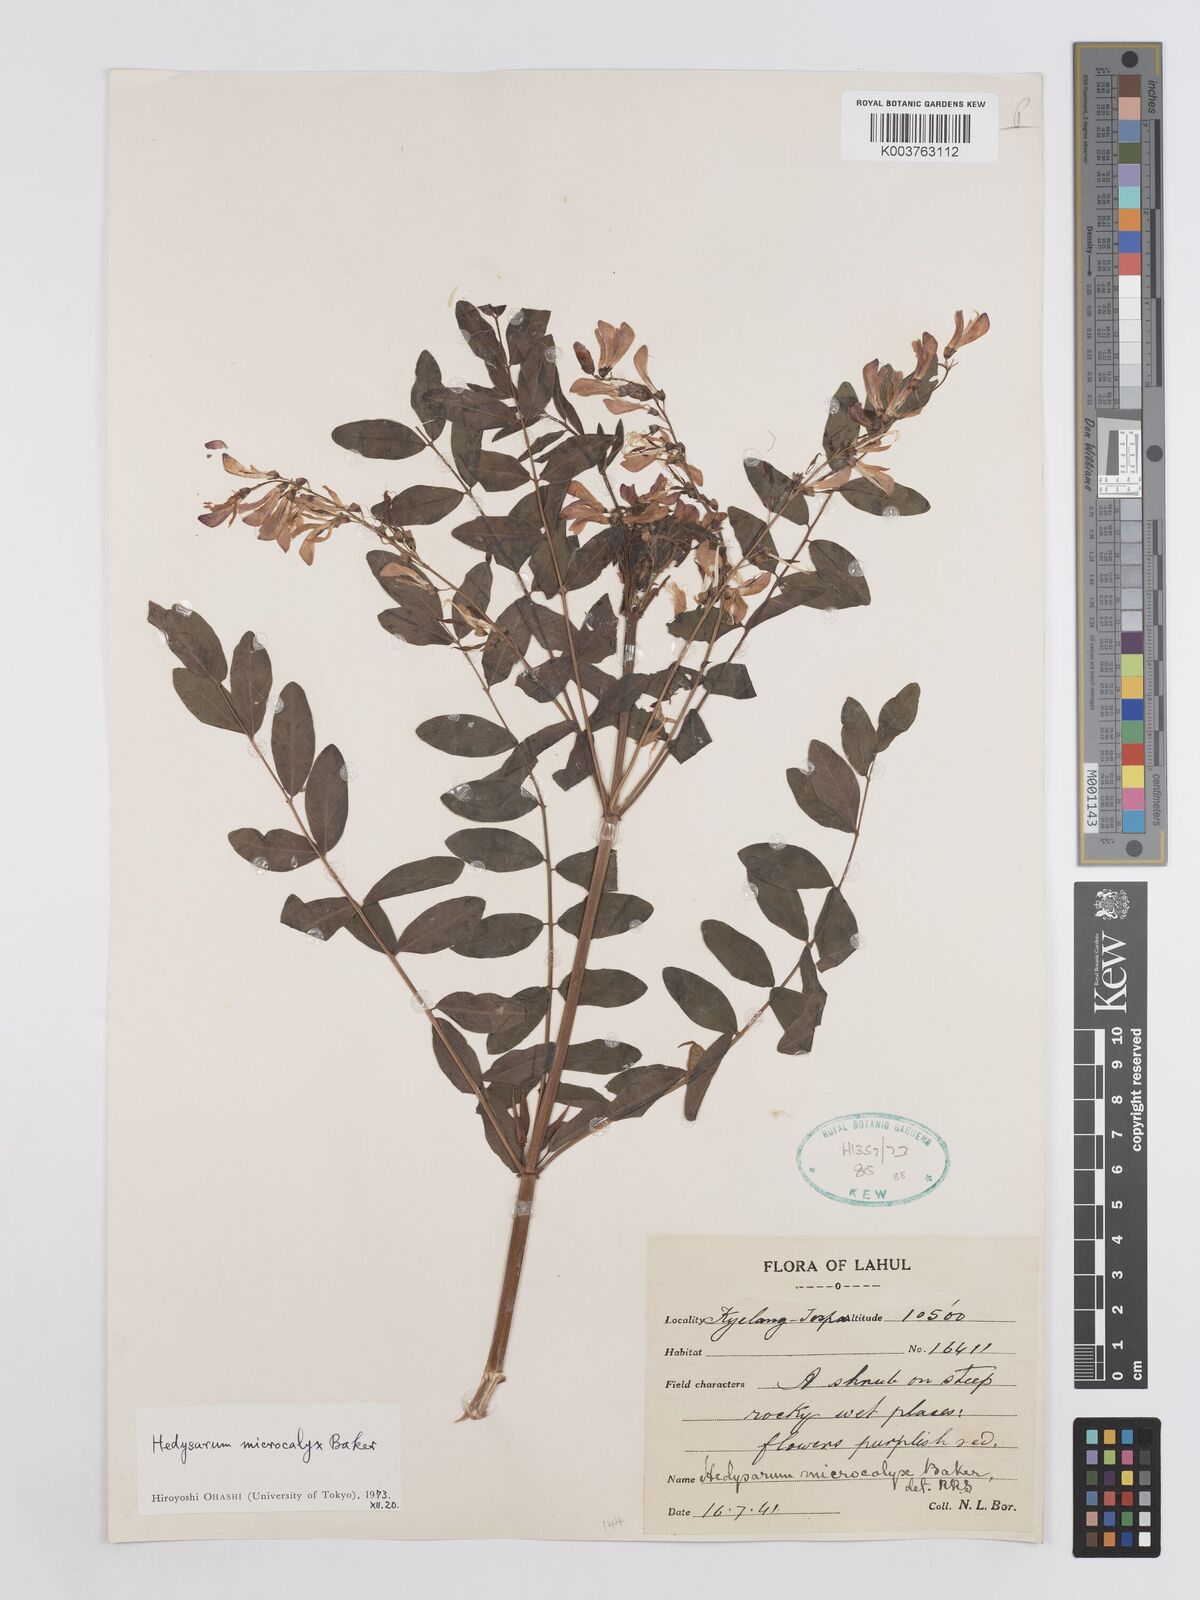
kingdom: Plantae
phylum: Tracheophyta
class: Magnoliopsida
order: Fabales
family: Fabaceae
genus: Hedysarum
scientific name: Hedysarum microcalyx
